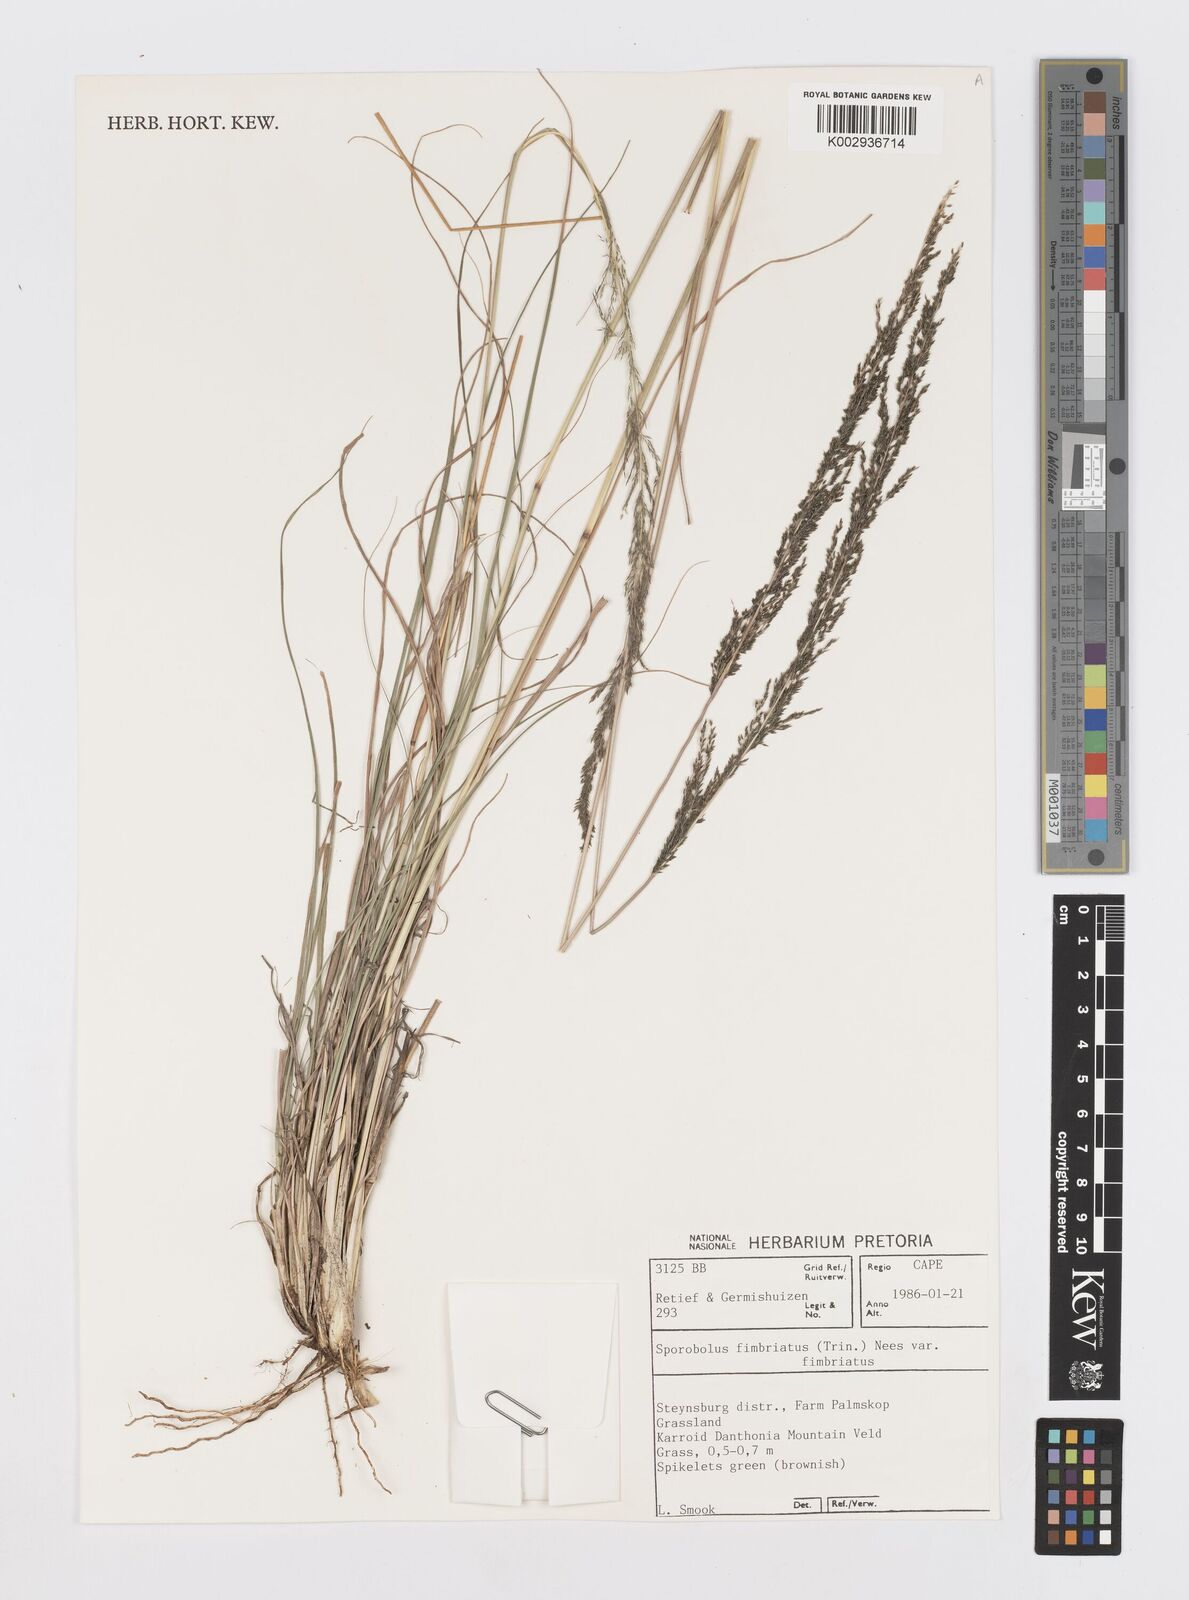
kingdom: Plantae
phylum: Tracheophyta
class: Liliopsida
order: Poales
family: Poaceae
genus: Sporobolus
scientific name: Sporobolus fimbriatus
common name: Fringed dropseed
